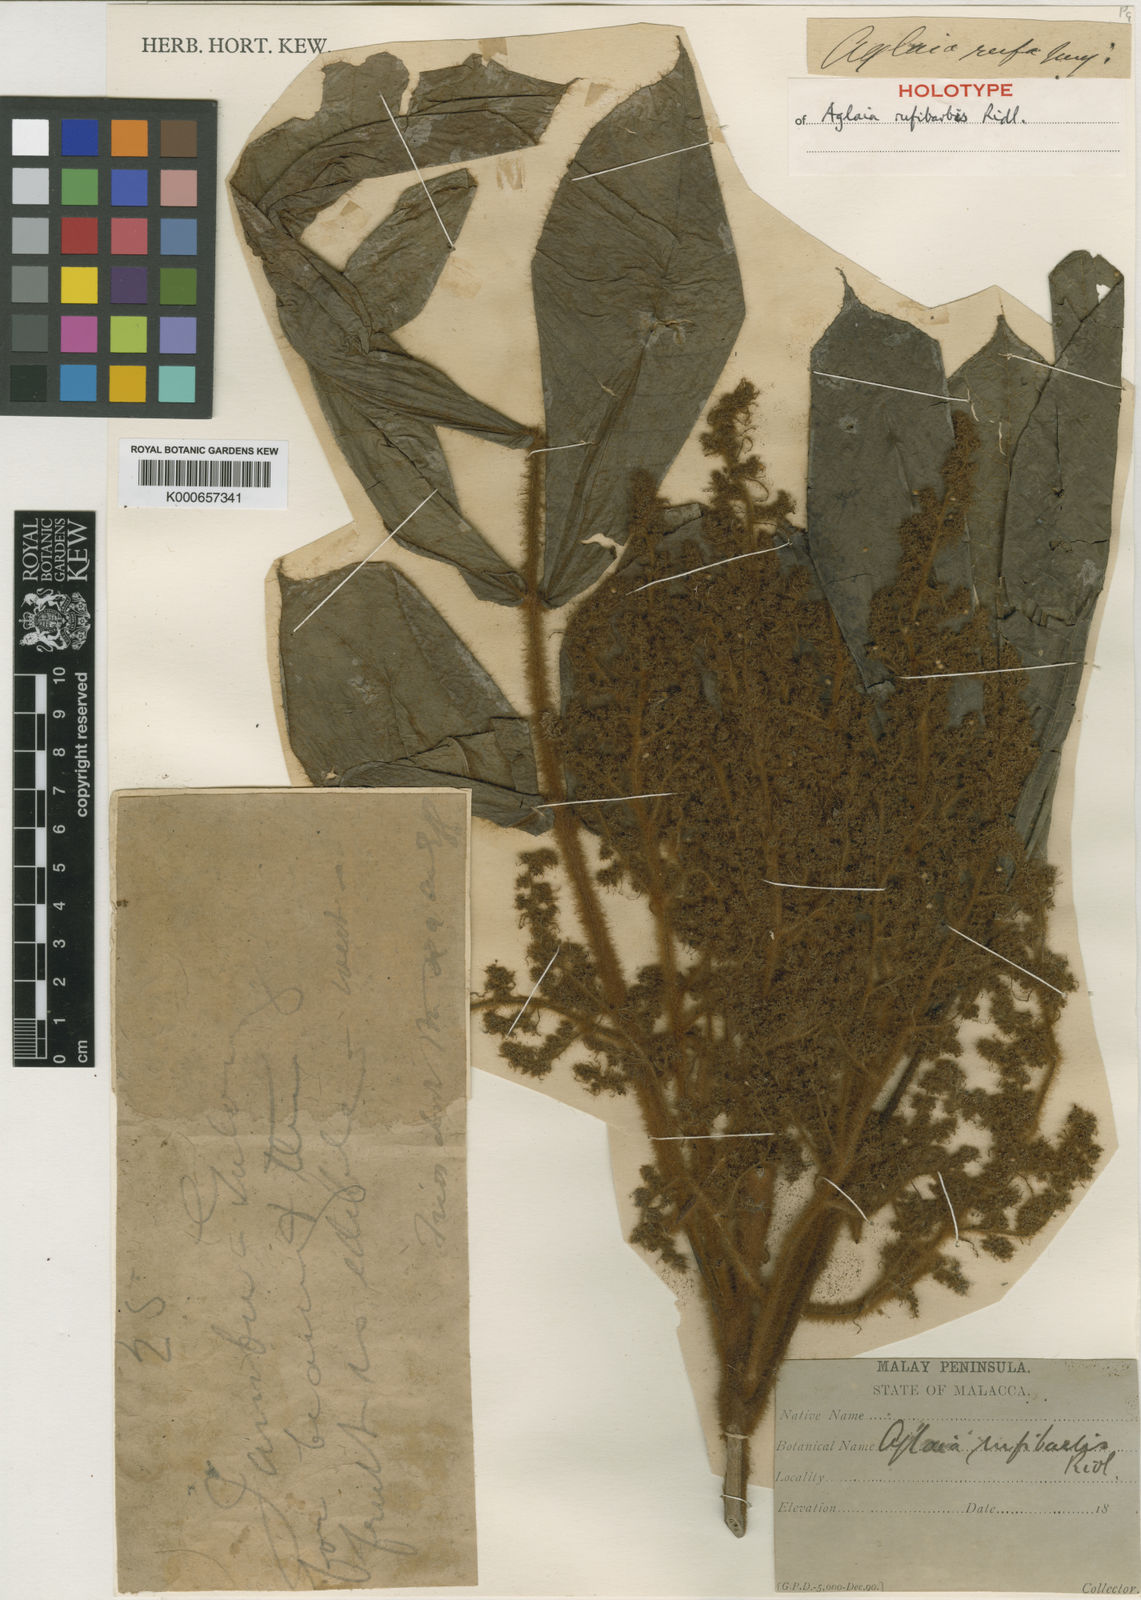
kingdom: Plantae
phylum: Tracheophyta
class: Magnoliopsida
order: Sapindales
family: Meliaceae
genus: Aglaia
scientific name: Aglaia rufibarbis
